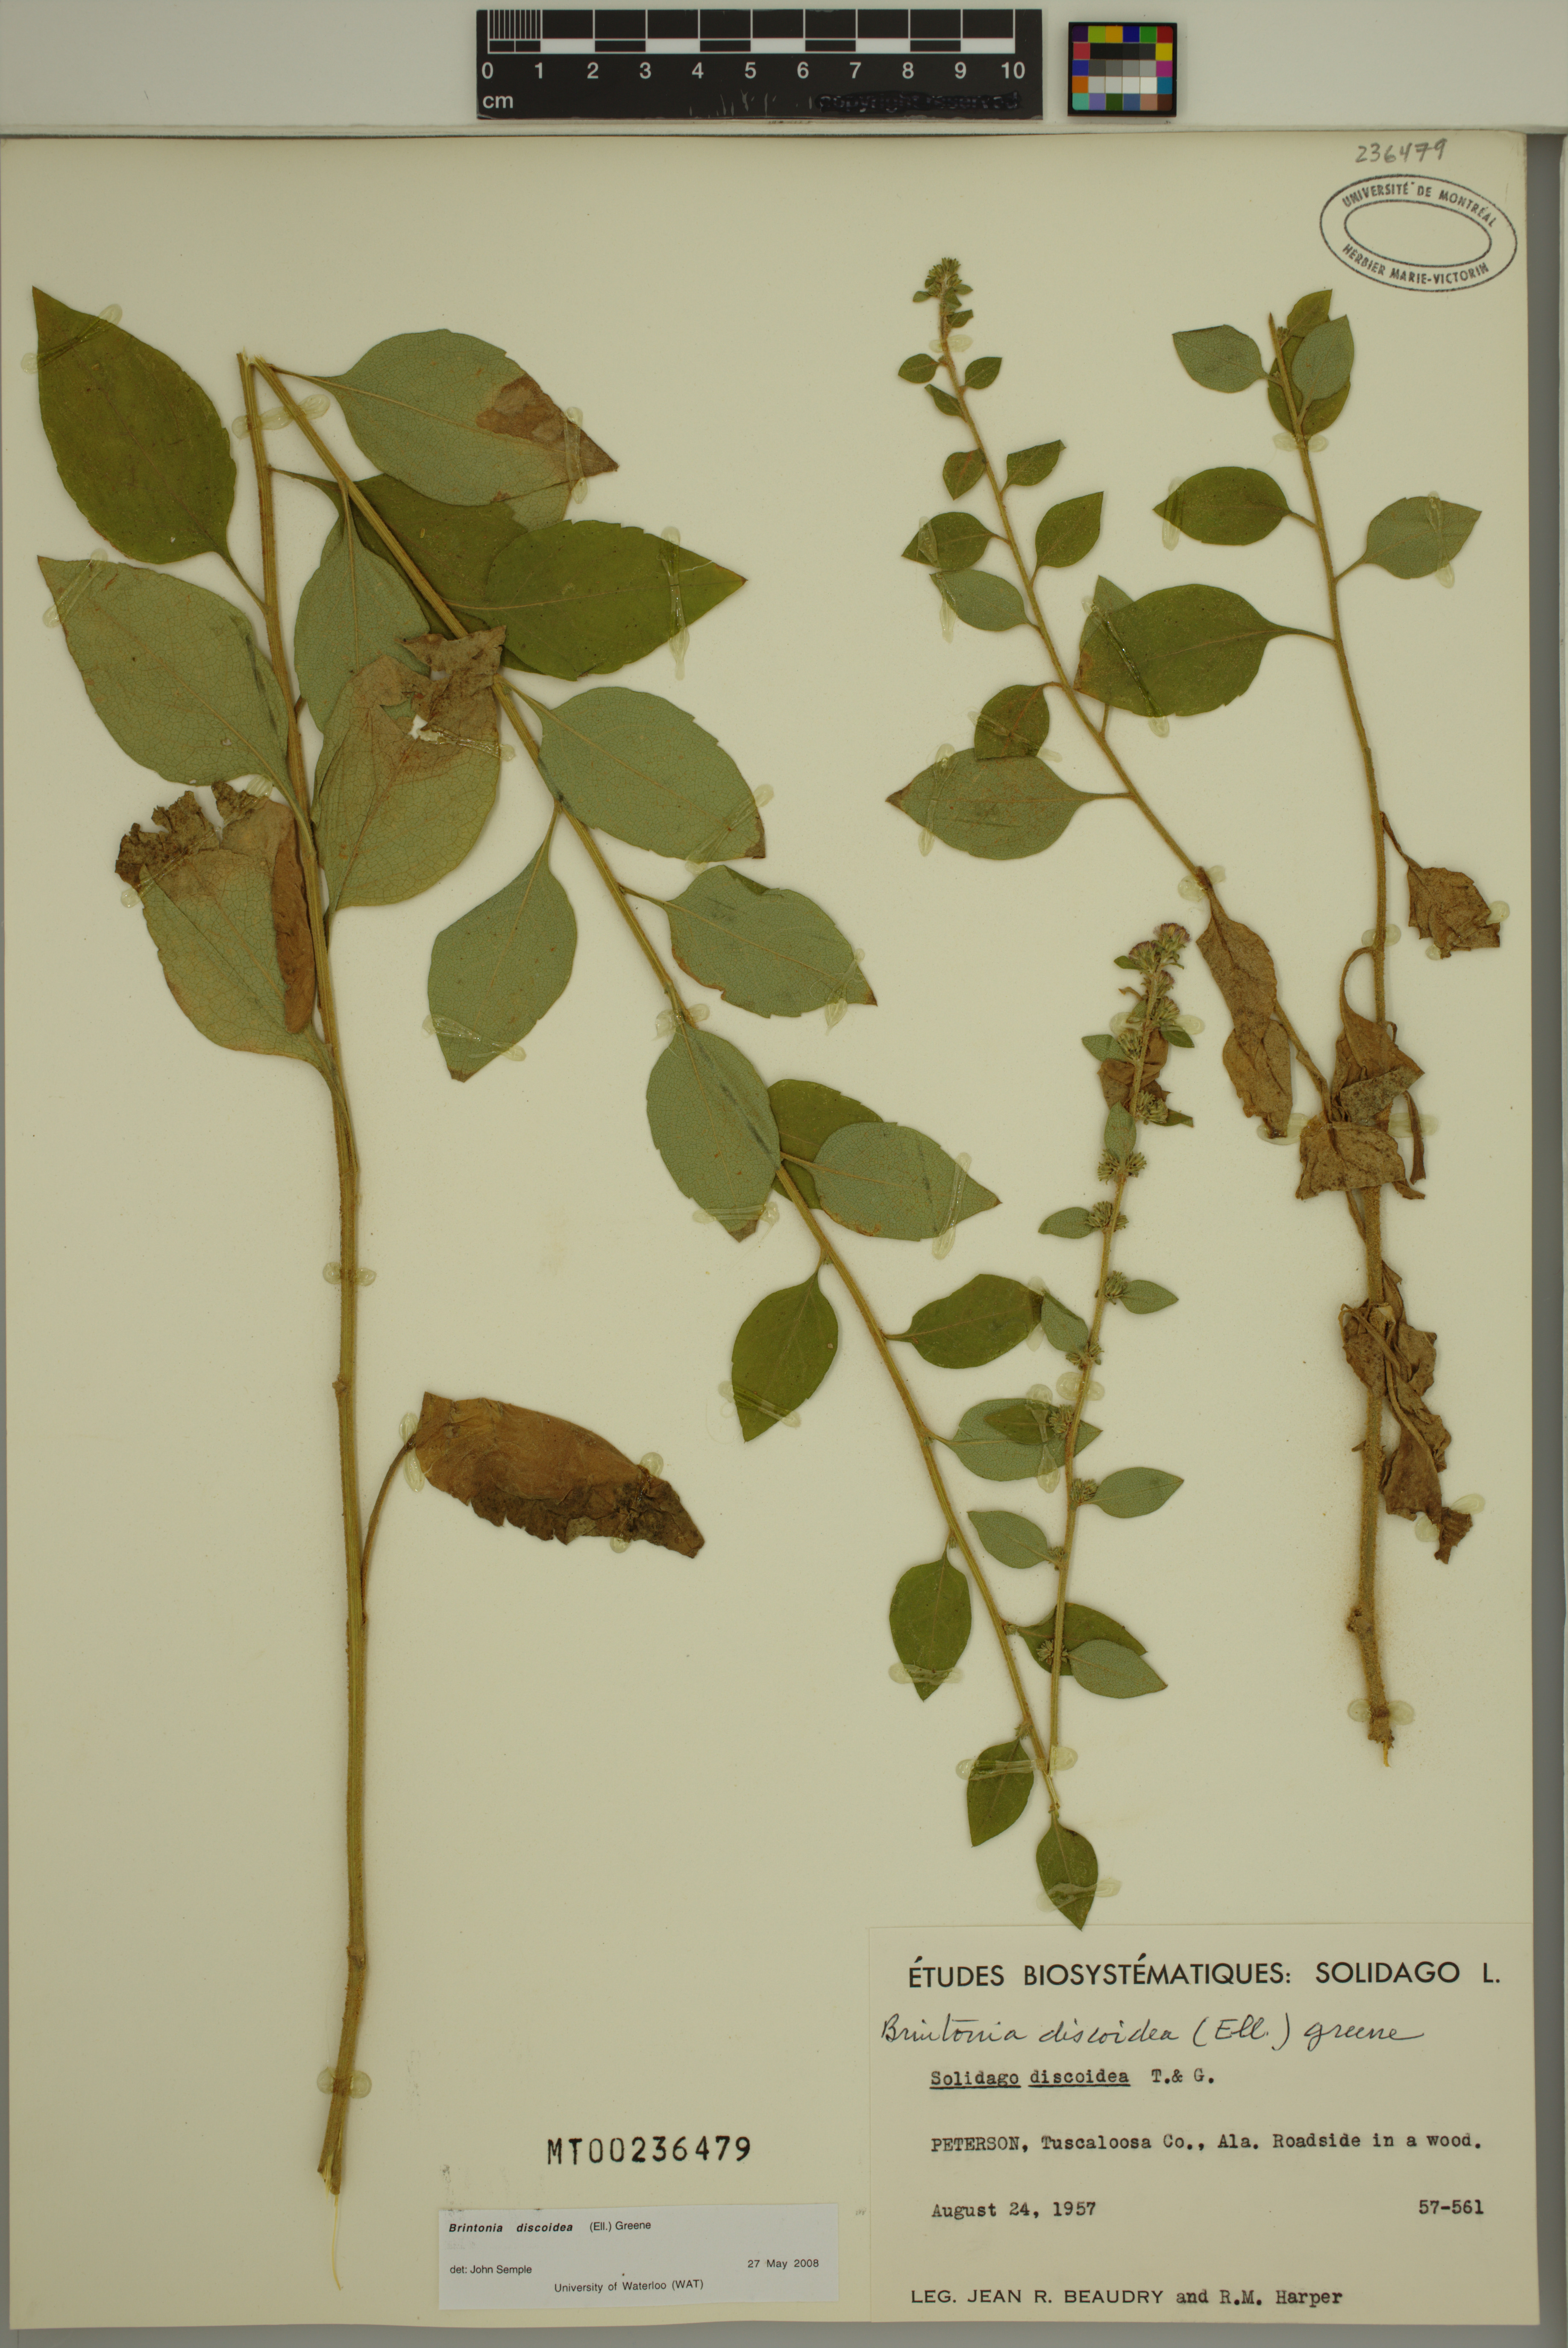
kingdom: Plantae
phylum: Tracheophyta
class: Magnoliopsida
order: Asterales
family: Asteraceae
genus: Solidago
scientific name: Solidago discoidea
